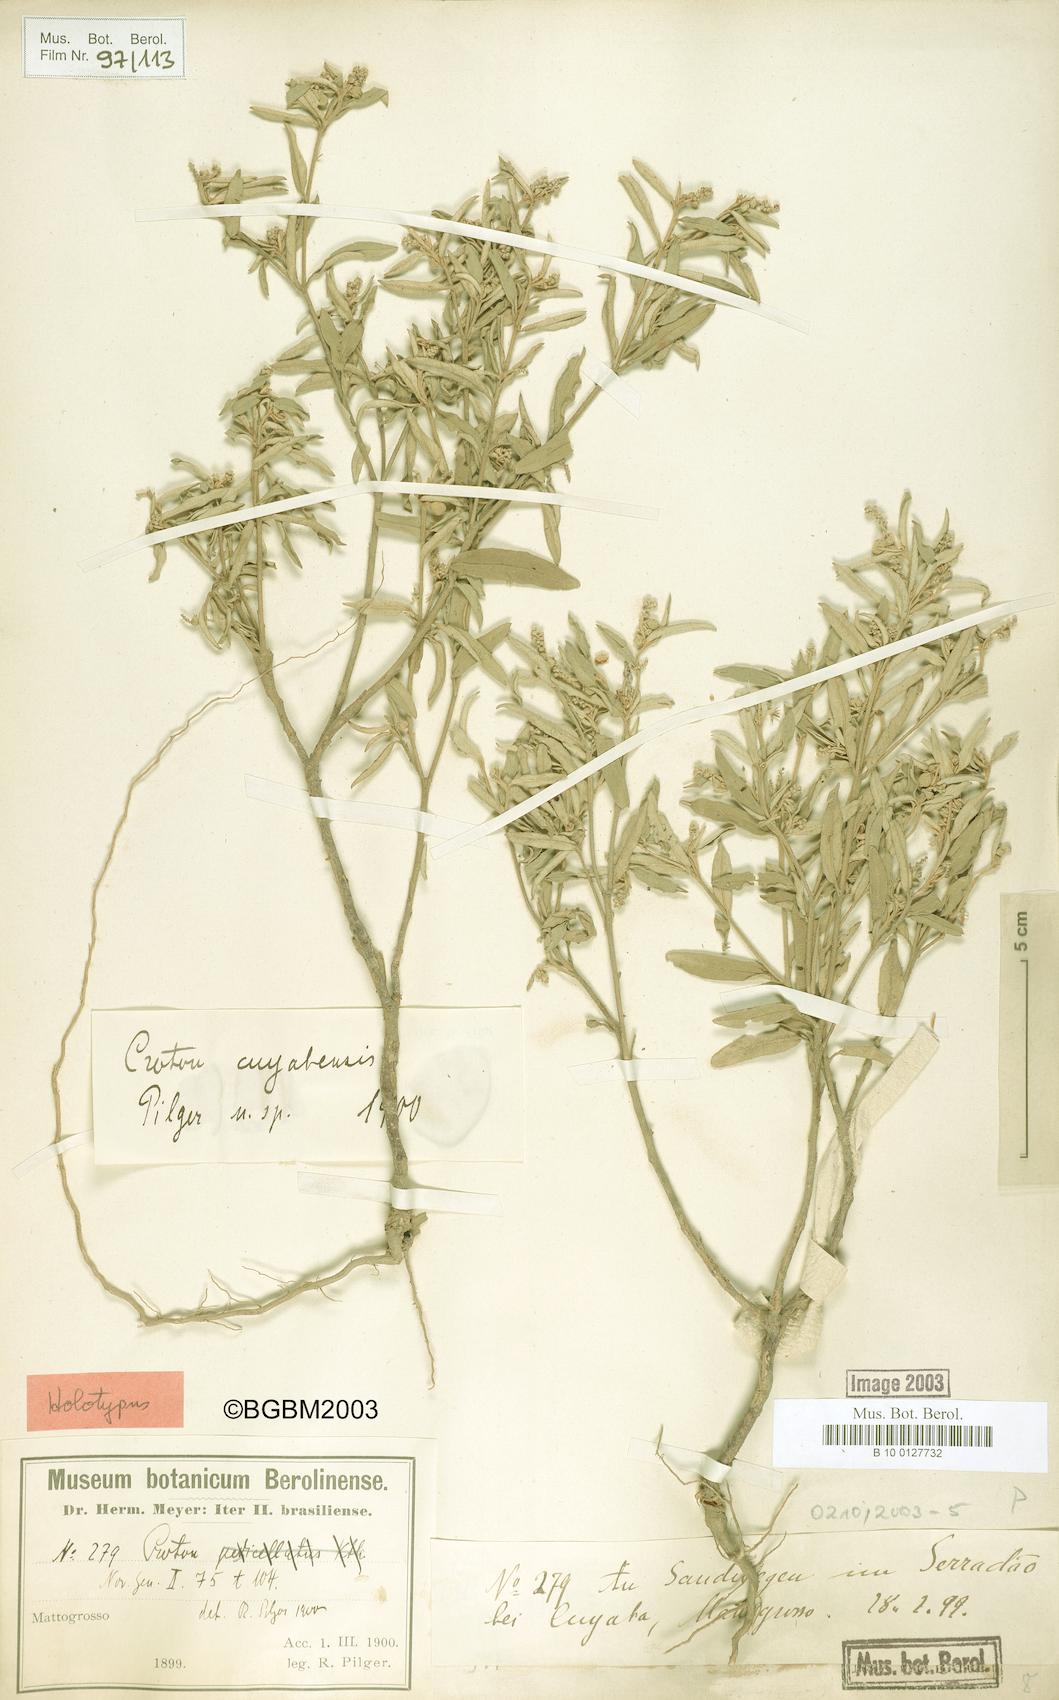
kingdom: Plantae
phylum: Tracheophyta
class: Magnoliopsida
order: Malpighiales
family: Euphorbiaceae
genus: Croton
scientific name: Croton cuyabensis
